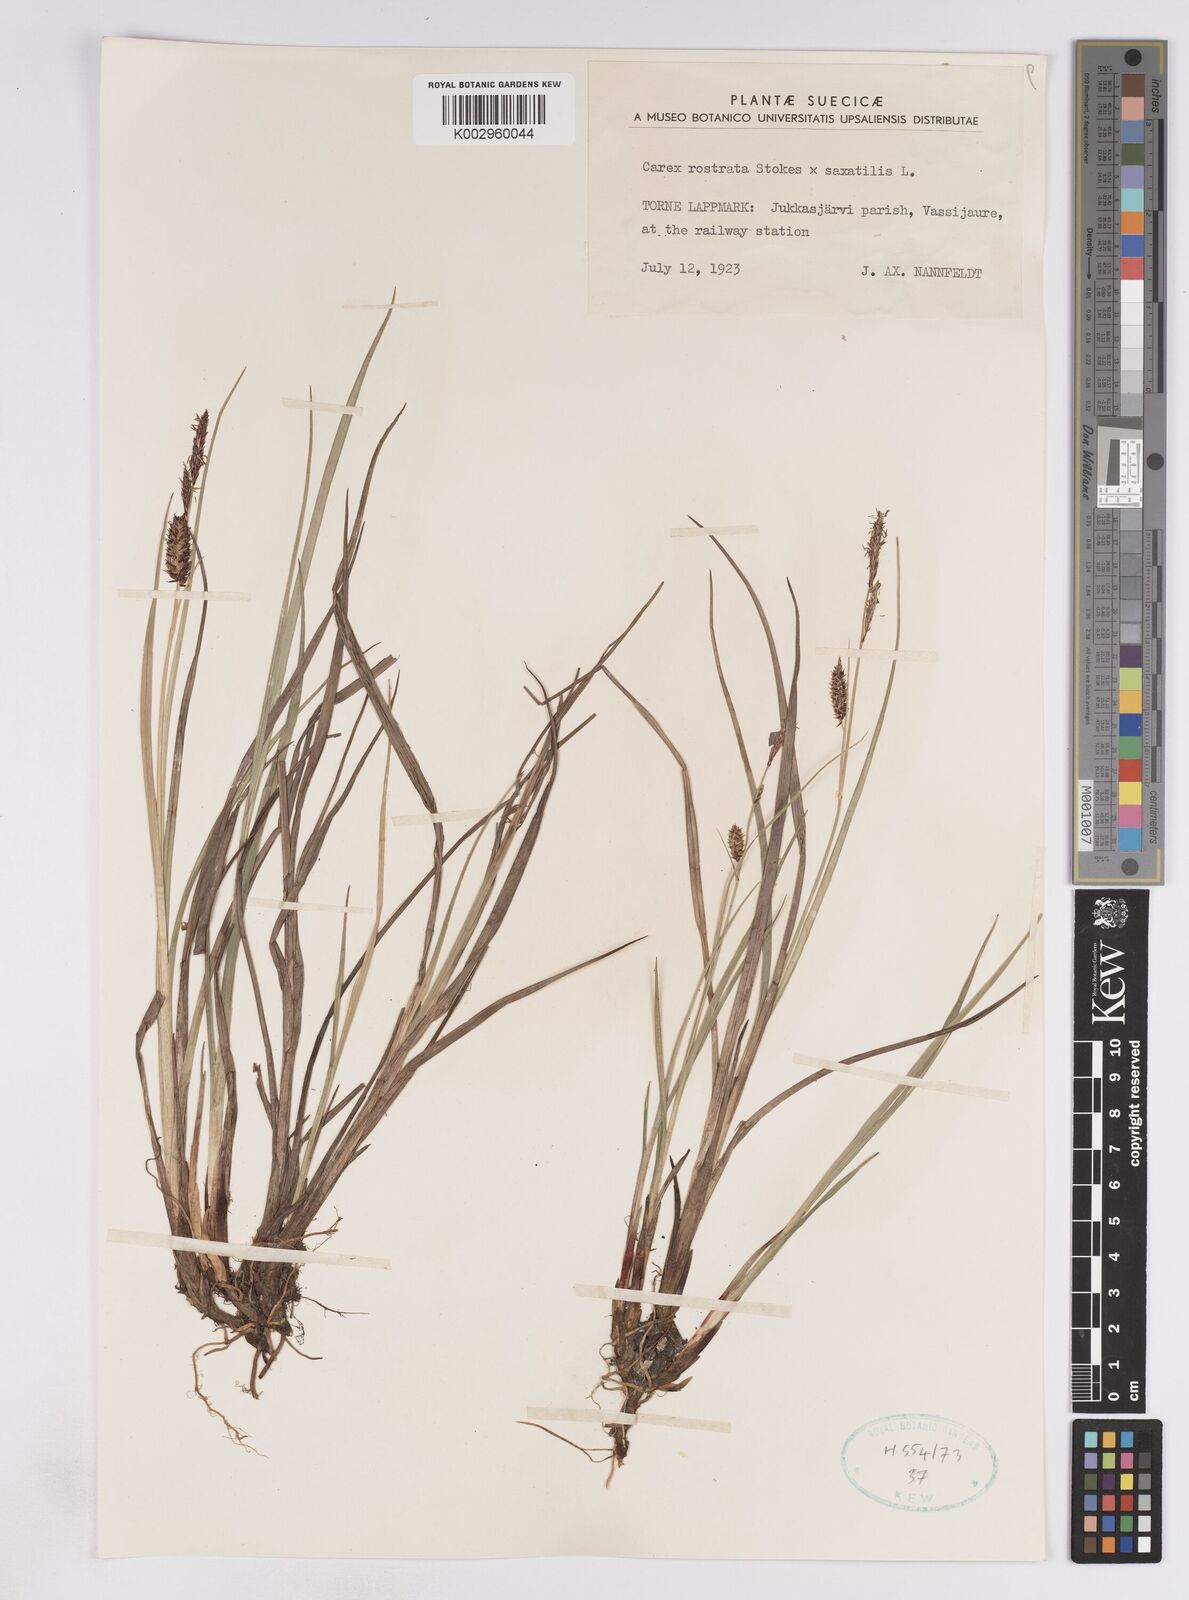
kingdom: Plantae
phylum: Tracheophyta
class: Liliopsida
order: Poales
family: Cyperaceae
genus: Carex
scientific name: Carex
